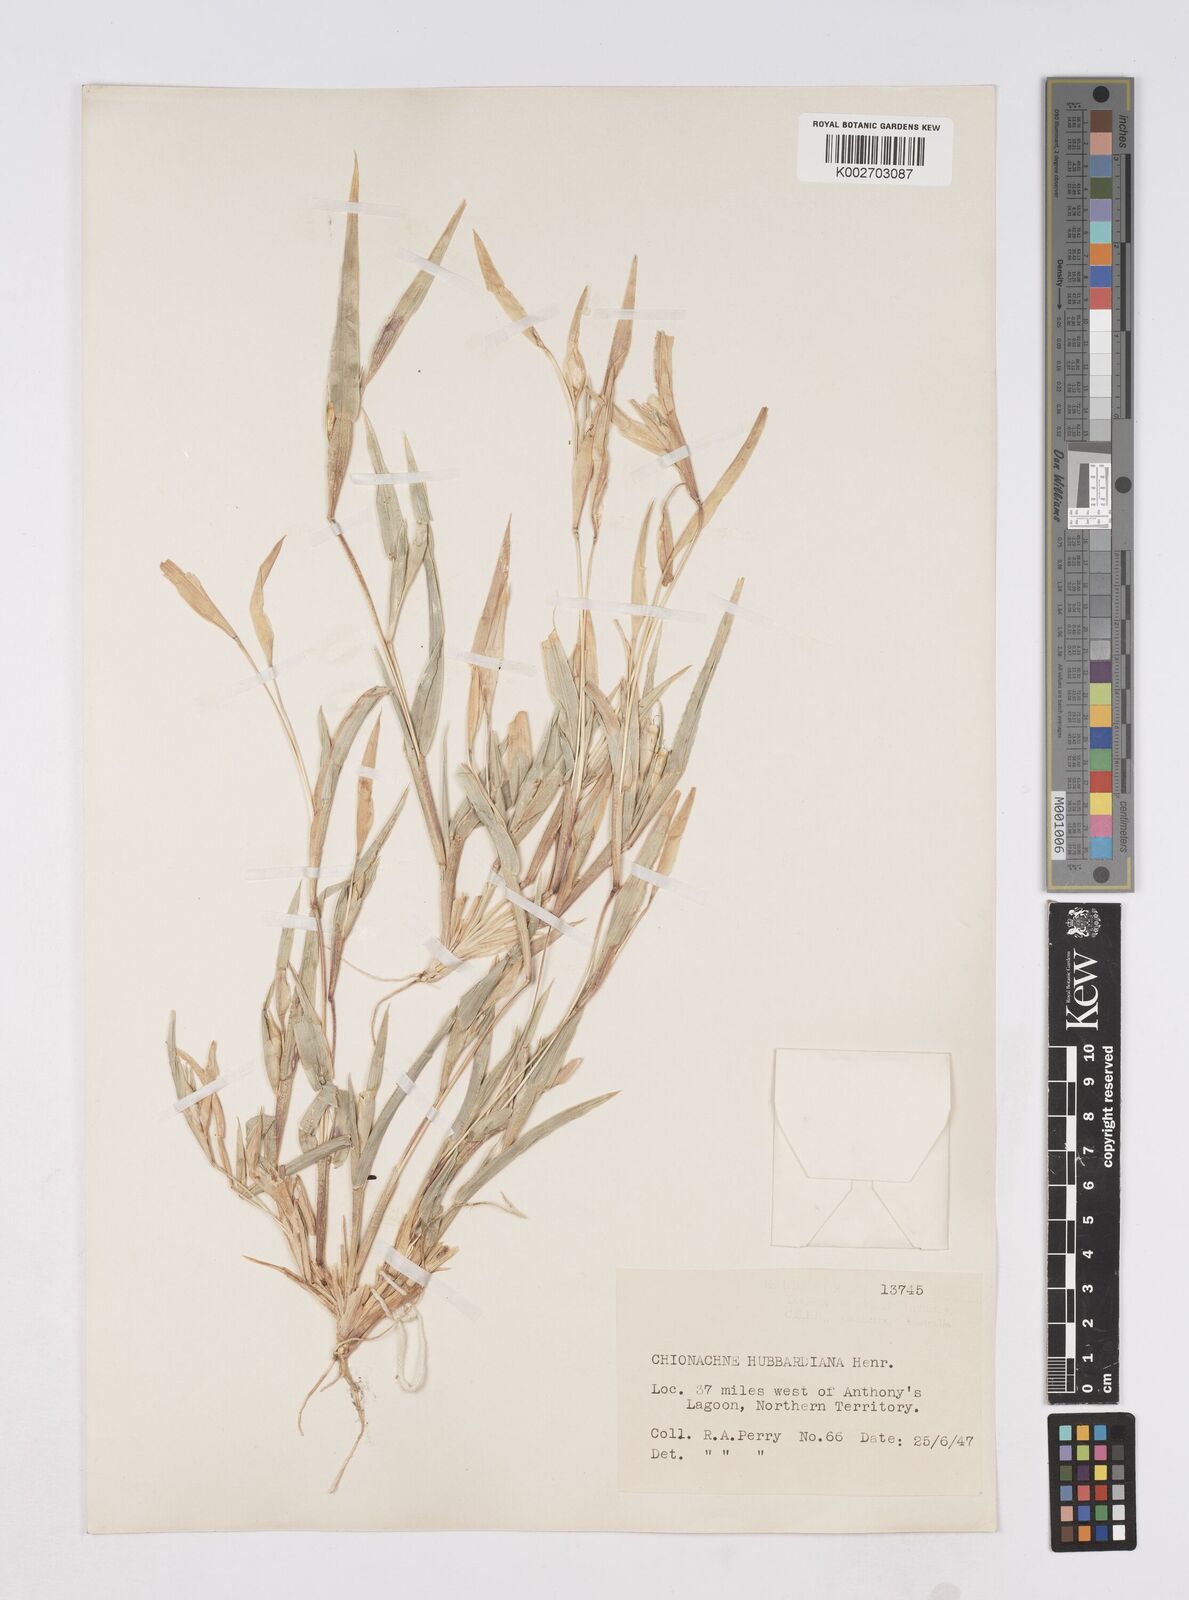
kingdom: Plantae
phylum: Tracheophyta
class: Liliopsida
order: Poales
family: Poaceae
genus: Polytoca
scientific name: Polytoca hubbardiana
